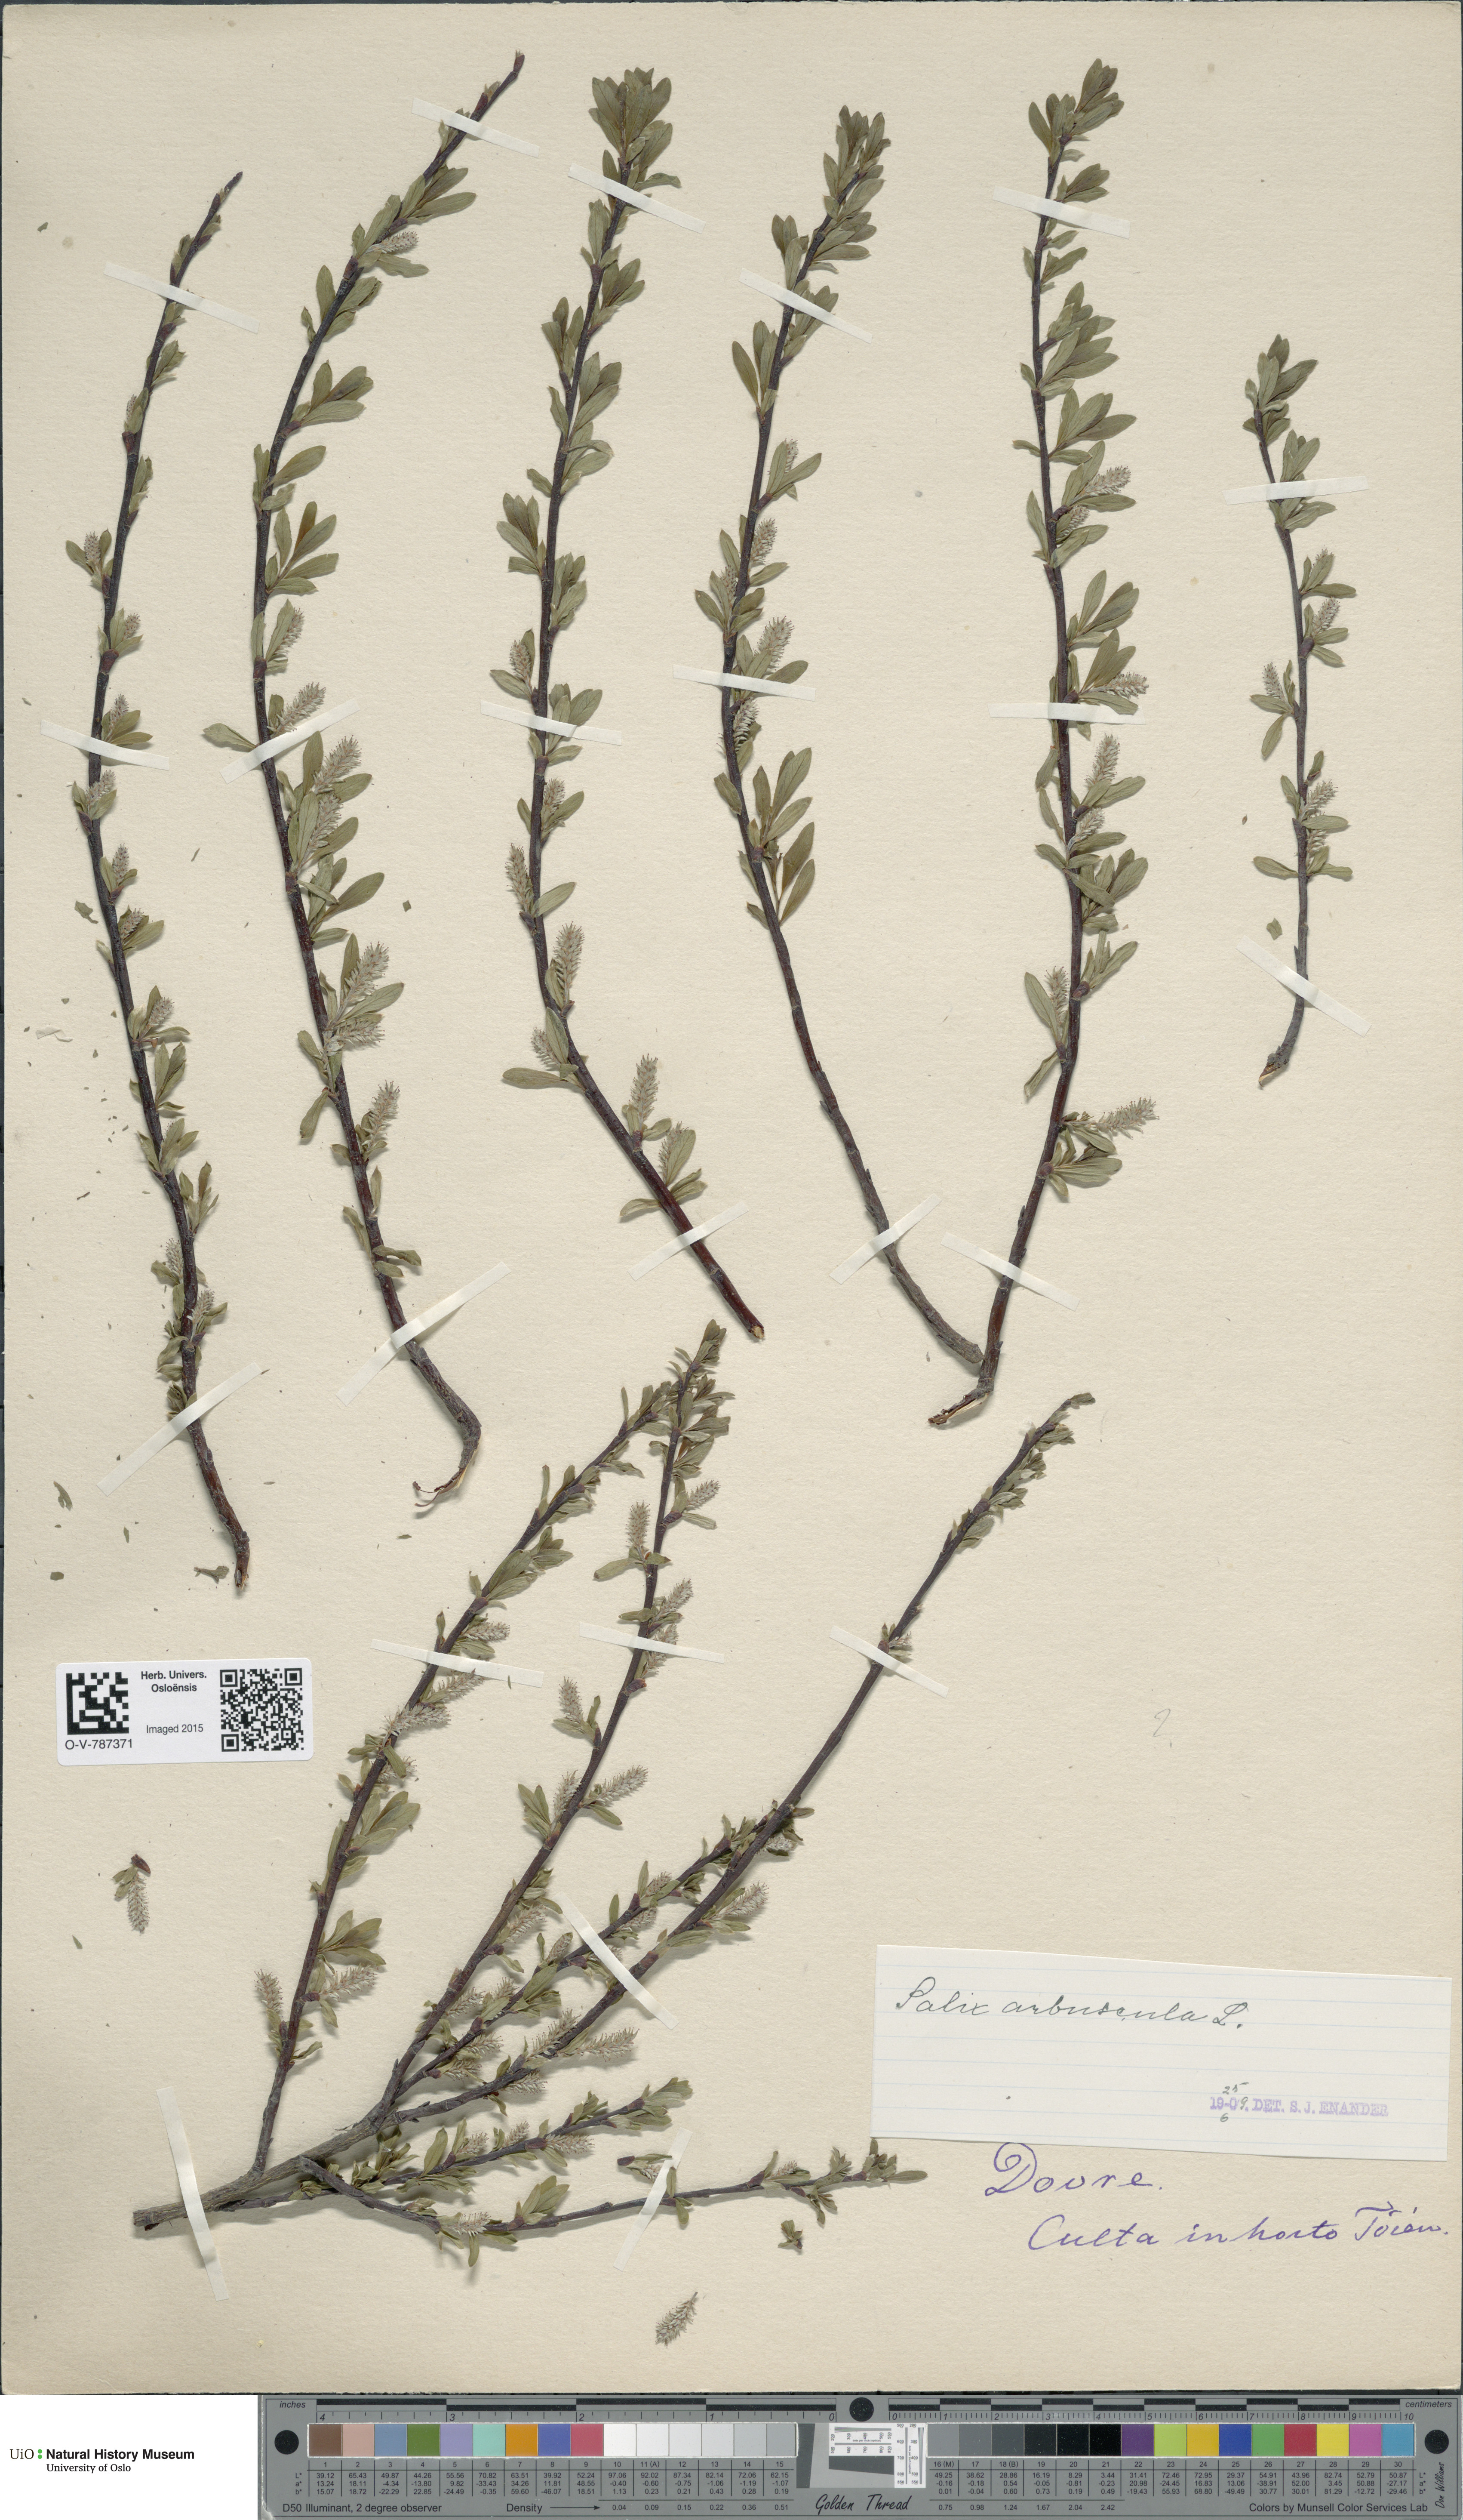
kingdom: Plantae
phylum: Tracheophyta
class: Magnoliopsida
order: Malpighiales
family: Salicaceae
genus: Salix
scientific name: Salix arbuscula
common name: Mountain willow
